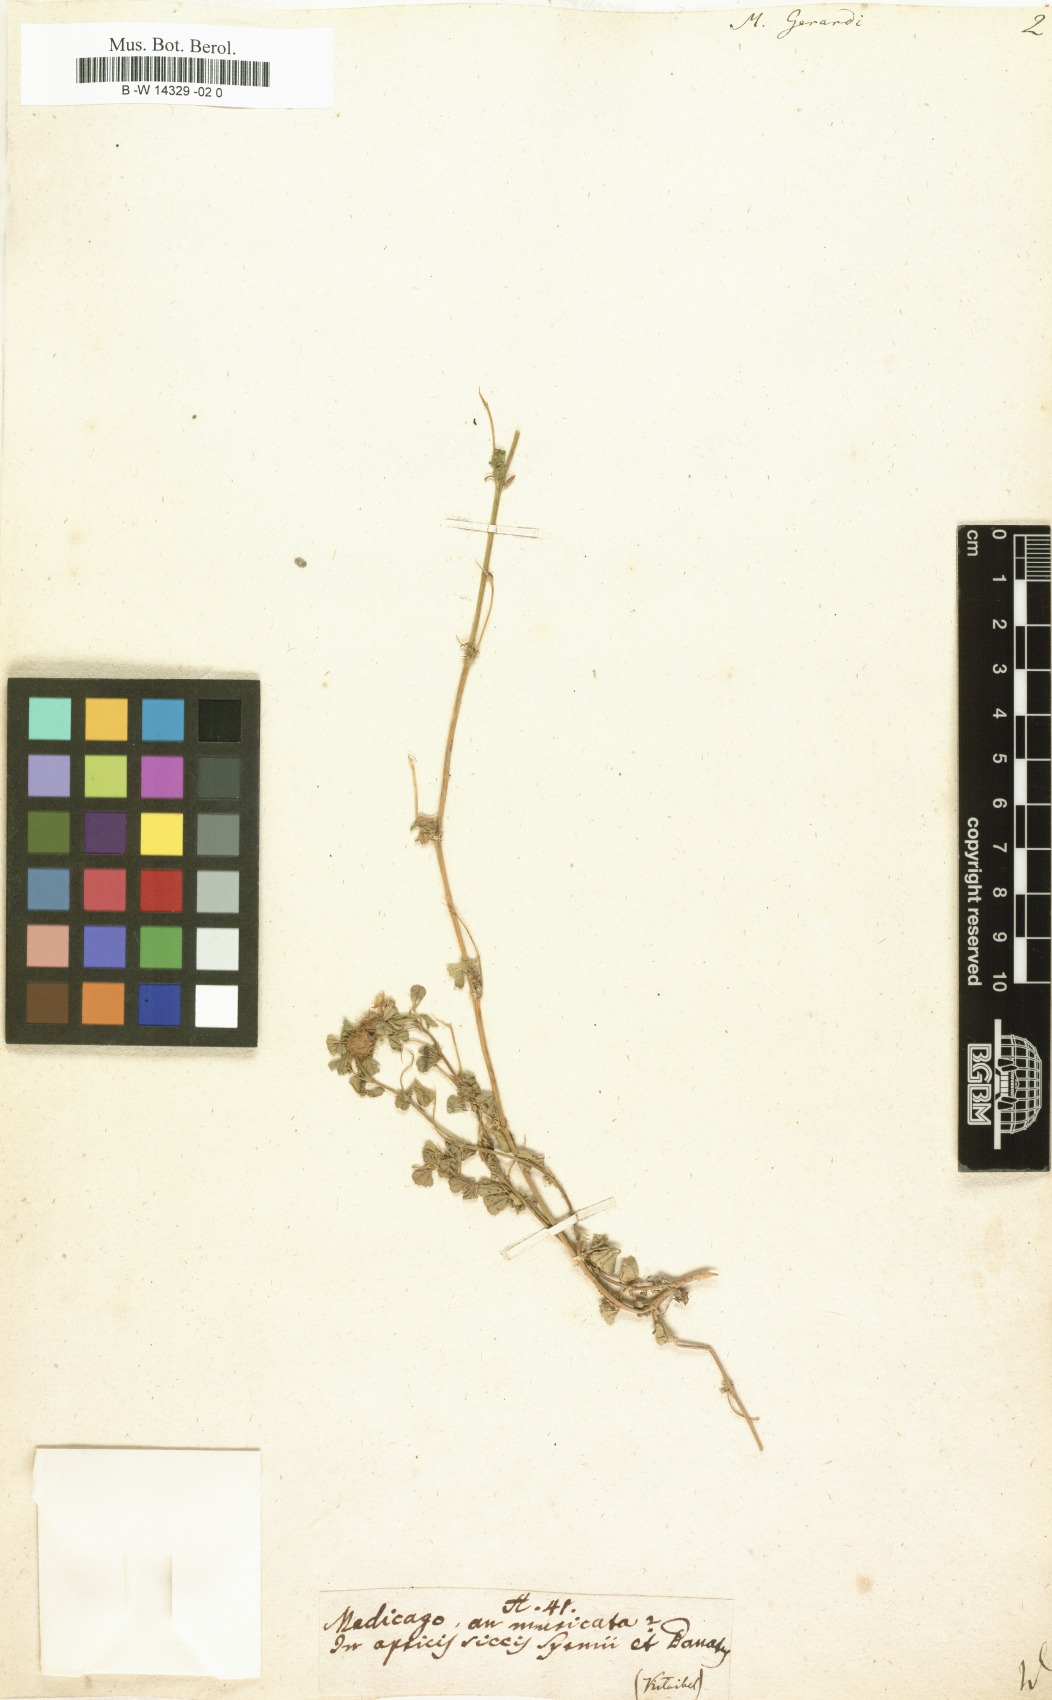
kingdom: Plantae
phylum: Tracheophyta
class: Magnoliopsida
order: Fabales
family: Fabaceae
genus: Medicago
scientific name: Medicago rigidula
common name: Tifton medic
